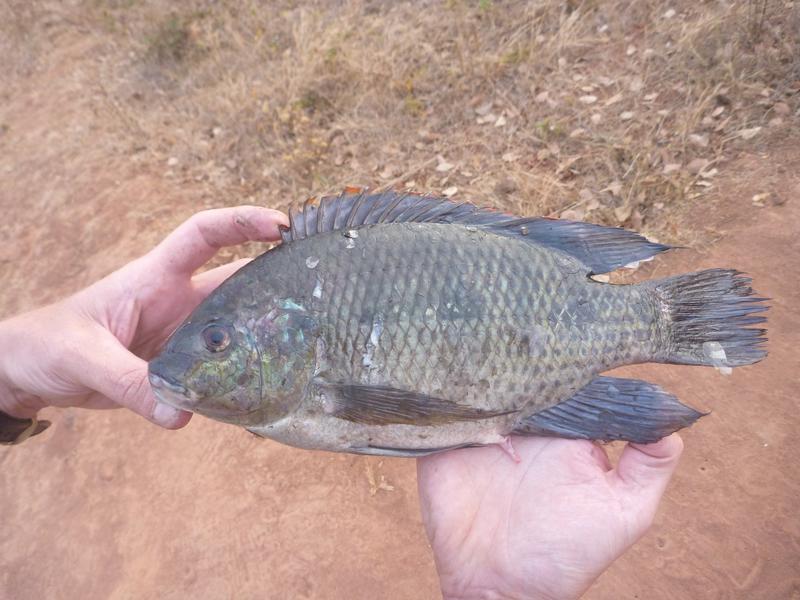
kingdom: Animalia
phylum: Chordata
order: Perciformes
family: Cichlidae
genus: Oreochromis
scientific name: Oreochromis upembae
